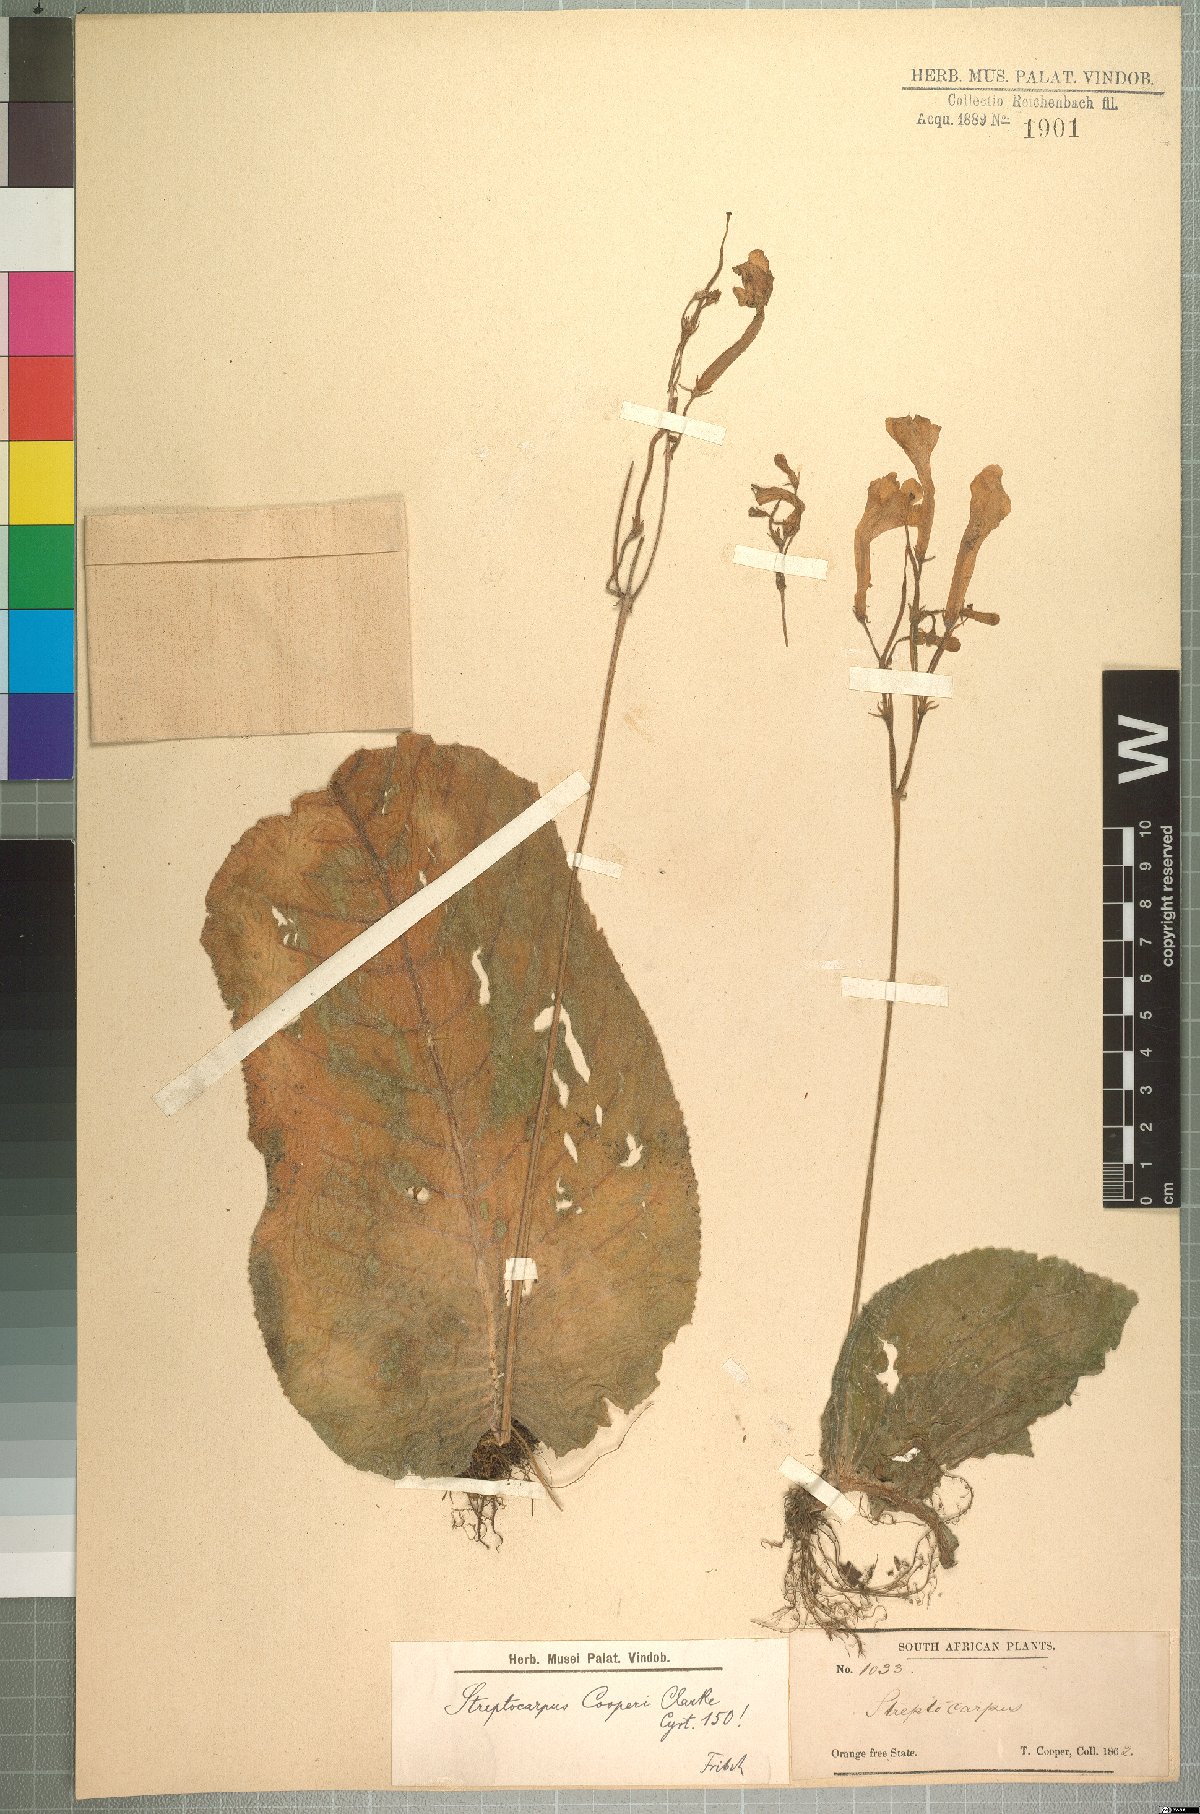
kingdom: Plantae
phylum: Tracheophyta
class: Magnoliopsida
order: Lamiales
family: Gesneriaceae
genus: Streptocarpus
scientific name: Streptocarpus cooperi
